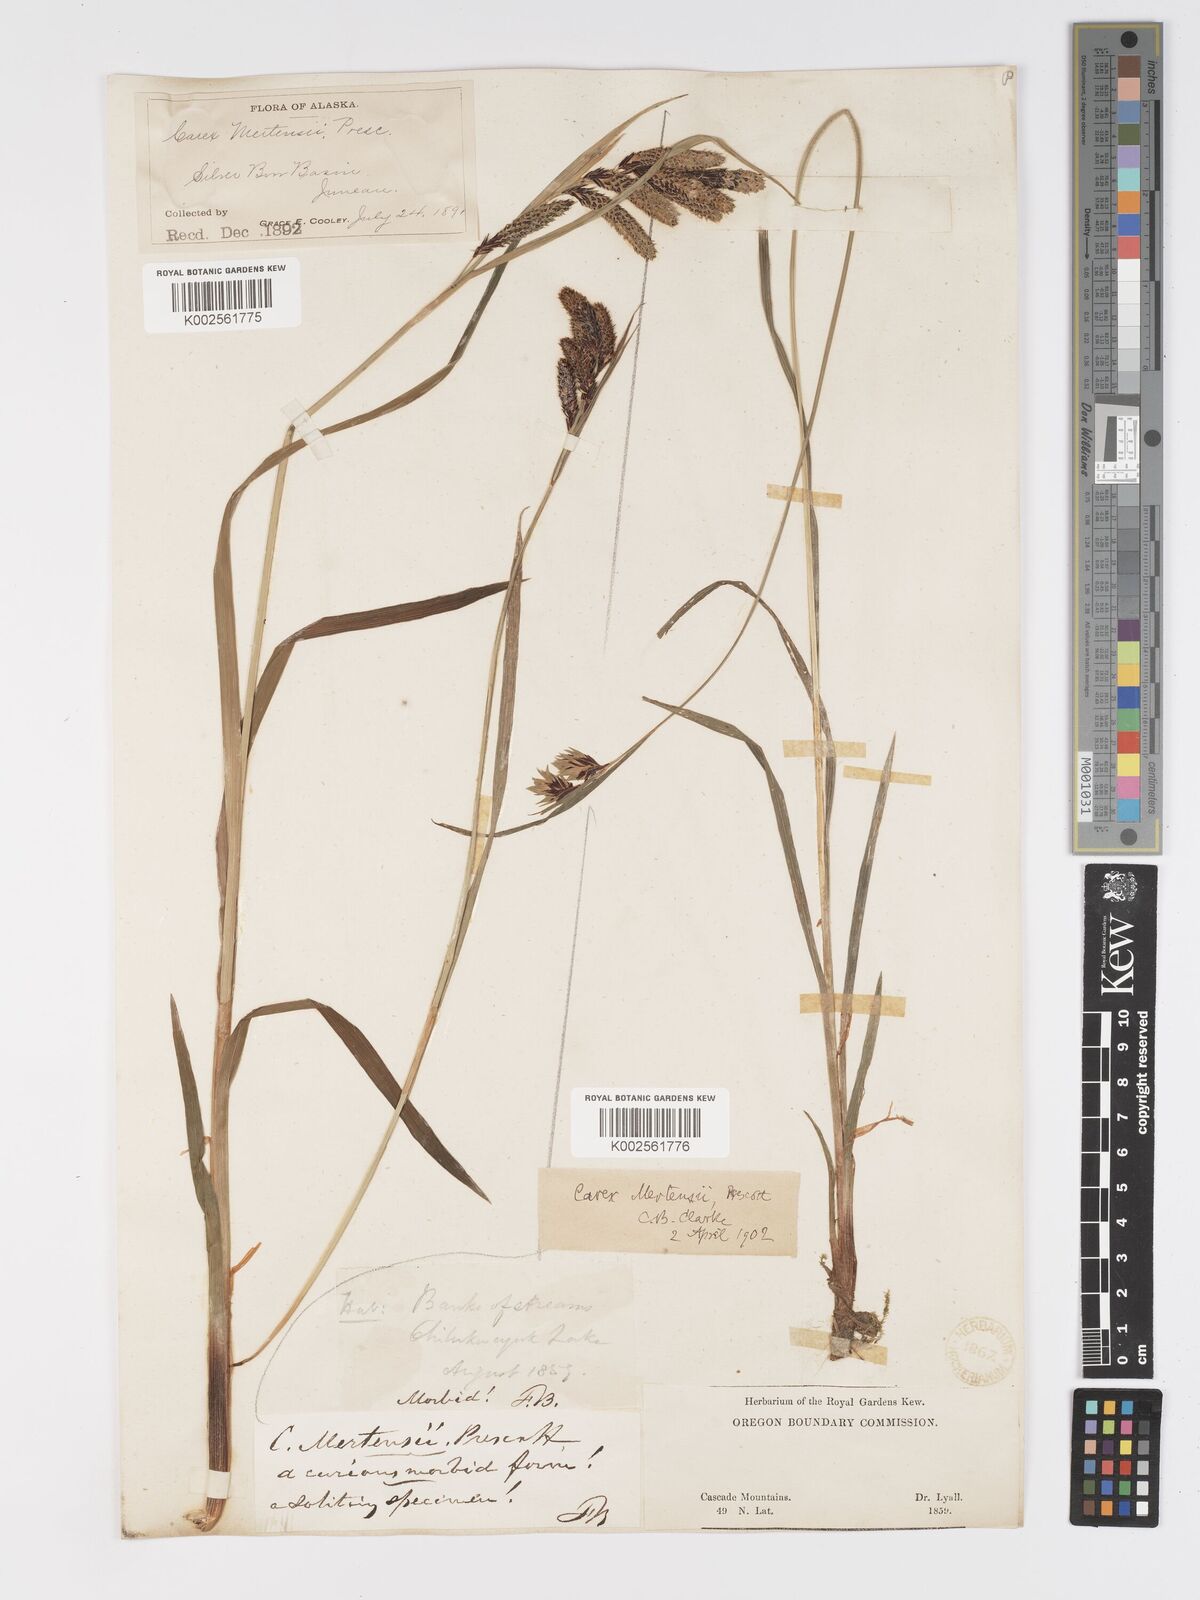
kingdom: Plantae
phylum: Tracheophyta
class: Liliopsida
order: Poales
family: Cyperaceae
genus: Carex
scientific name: Carex mertensii
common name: Mertens' sedge
